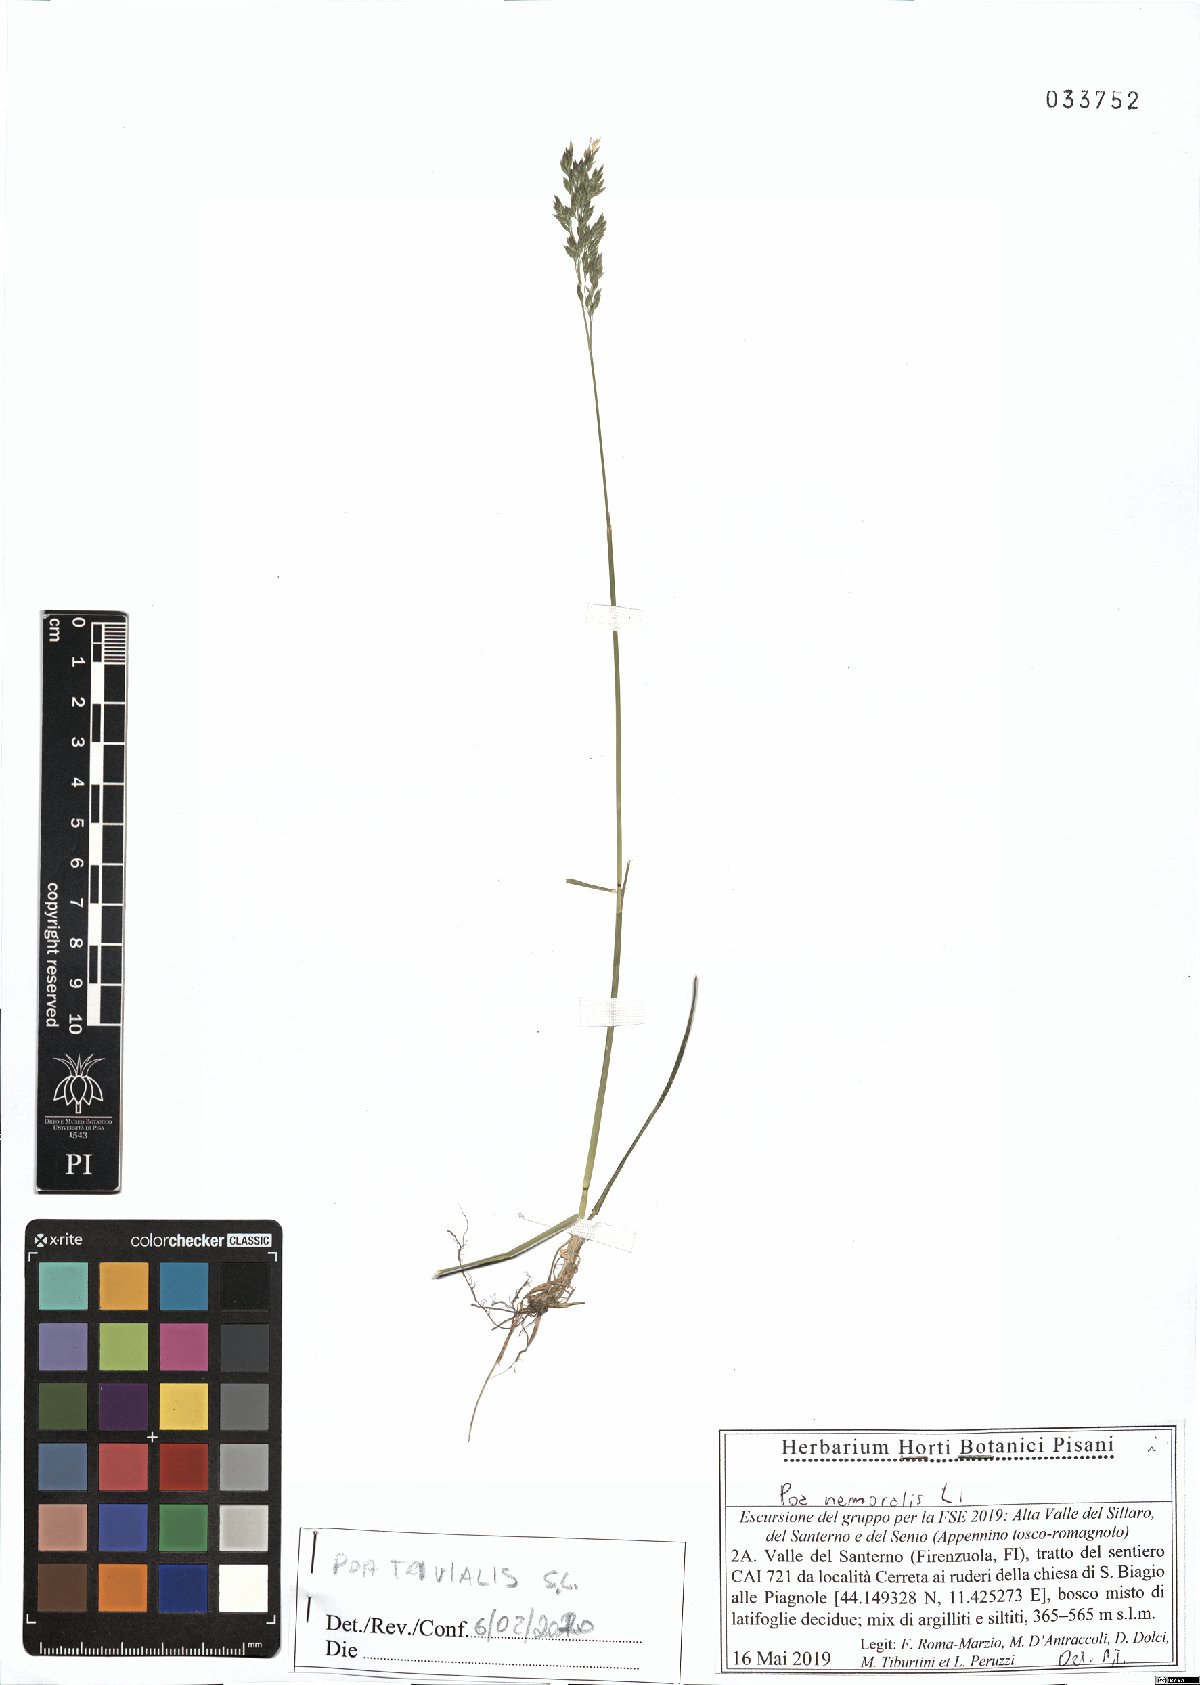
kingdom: Plantae
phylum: Tracheophyta
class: Liliopsida
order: Poales
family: Poaceae
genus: Poa
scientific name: Poa trivialis
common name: Rough bluegrass
